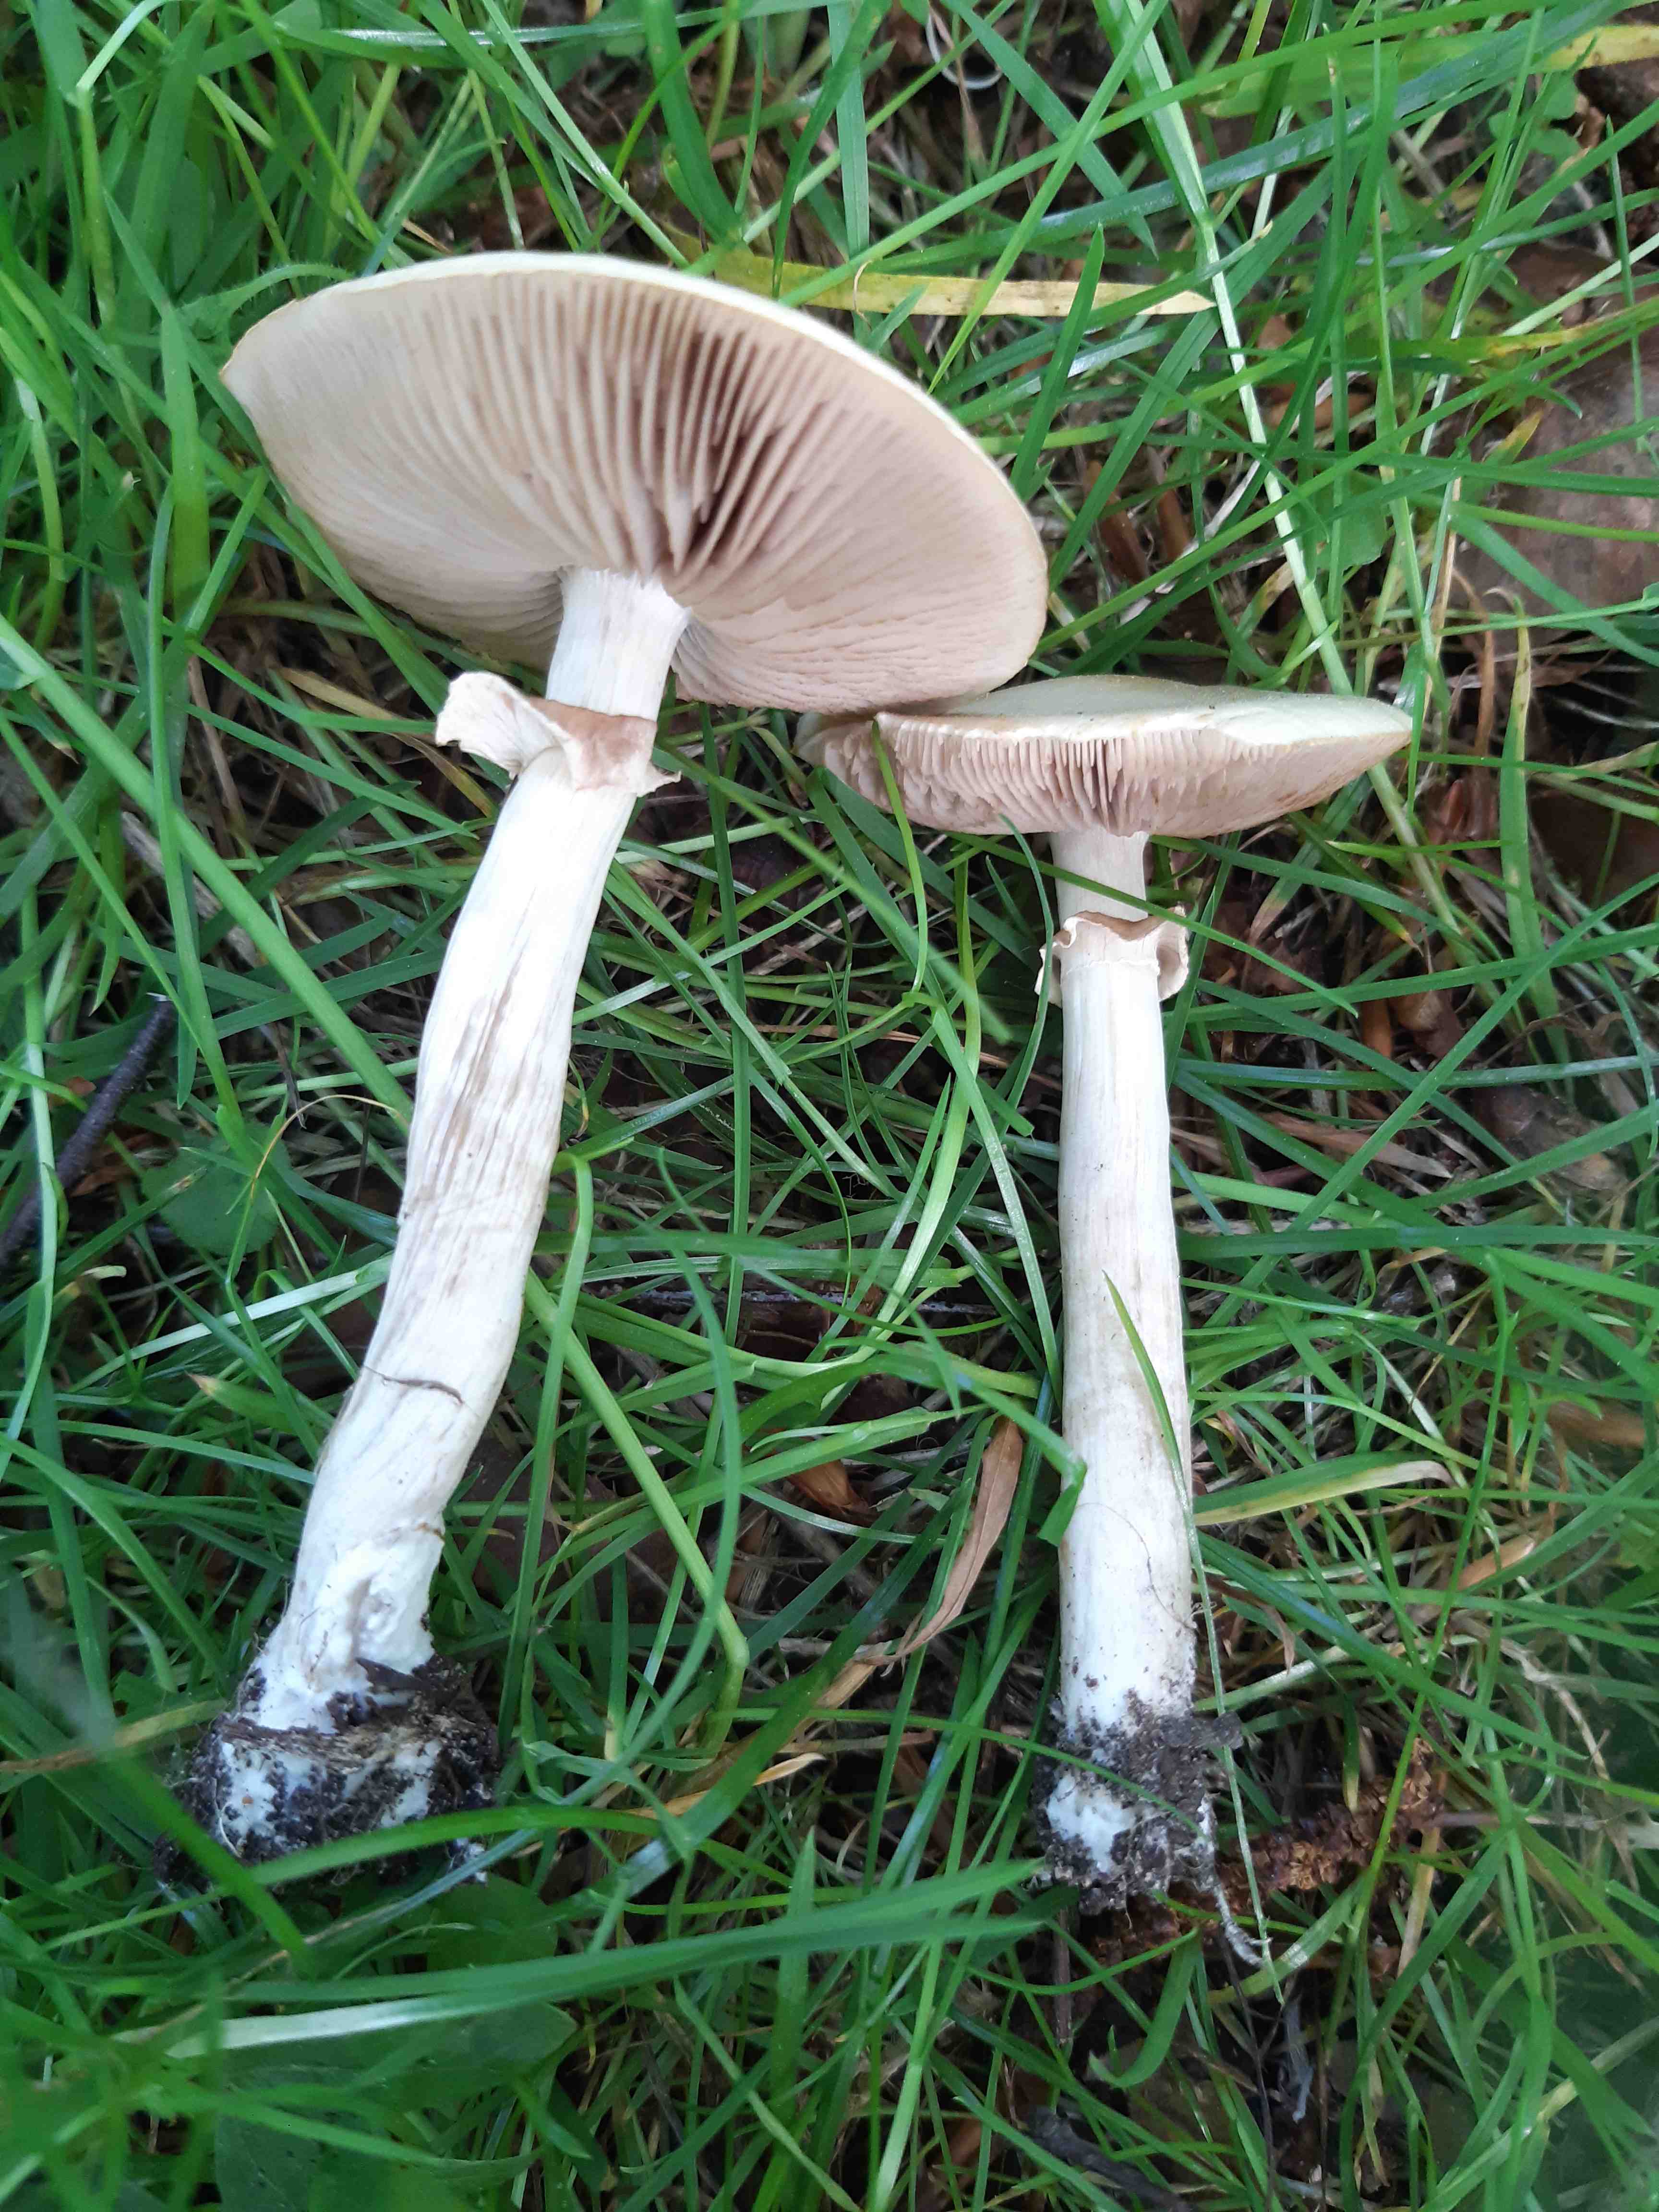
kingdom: Fungi
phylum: Basidiomycota
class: Agaricomycetes
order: Agaricales
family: Strophariaceae
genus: Agrocybe
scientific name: Agrocybe praecox
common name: tidlig agerhat
